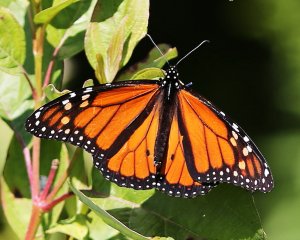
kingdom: Animalia
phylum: Arthropoda
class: Insecta
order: Lepidoptera
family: Nymphalidae
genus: Danaus
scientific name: Danaus plexippus
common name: Monarch
